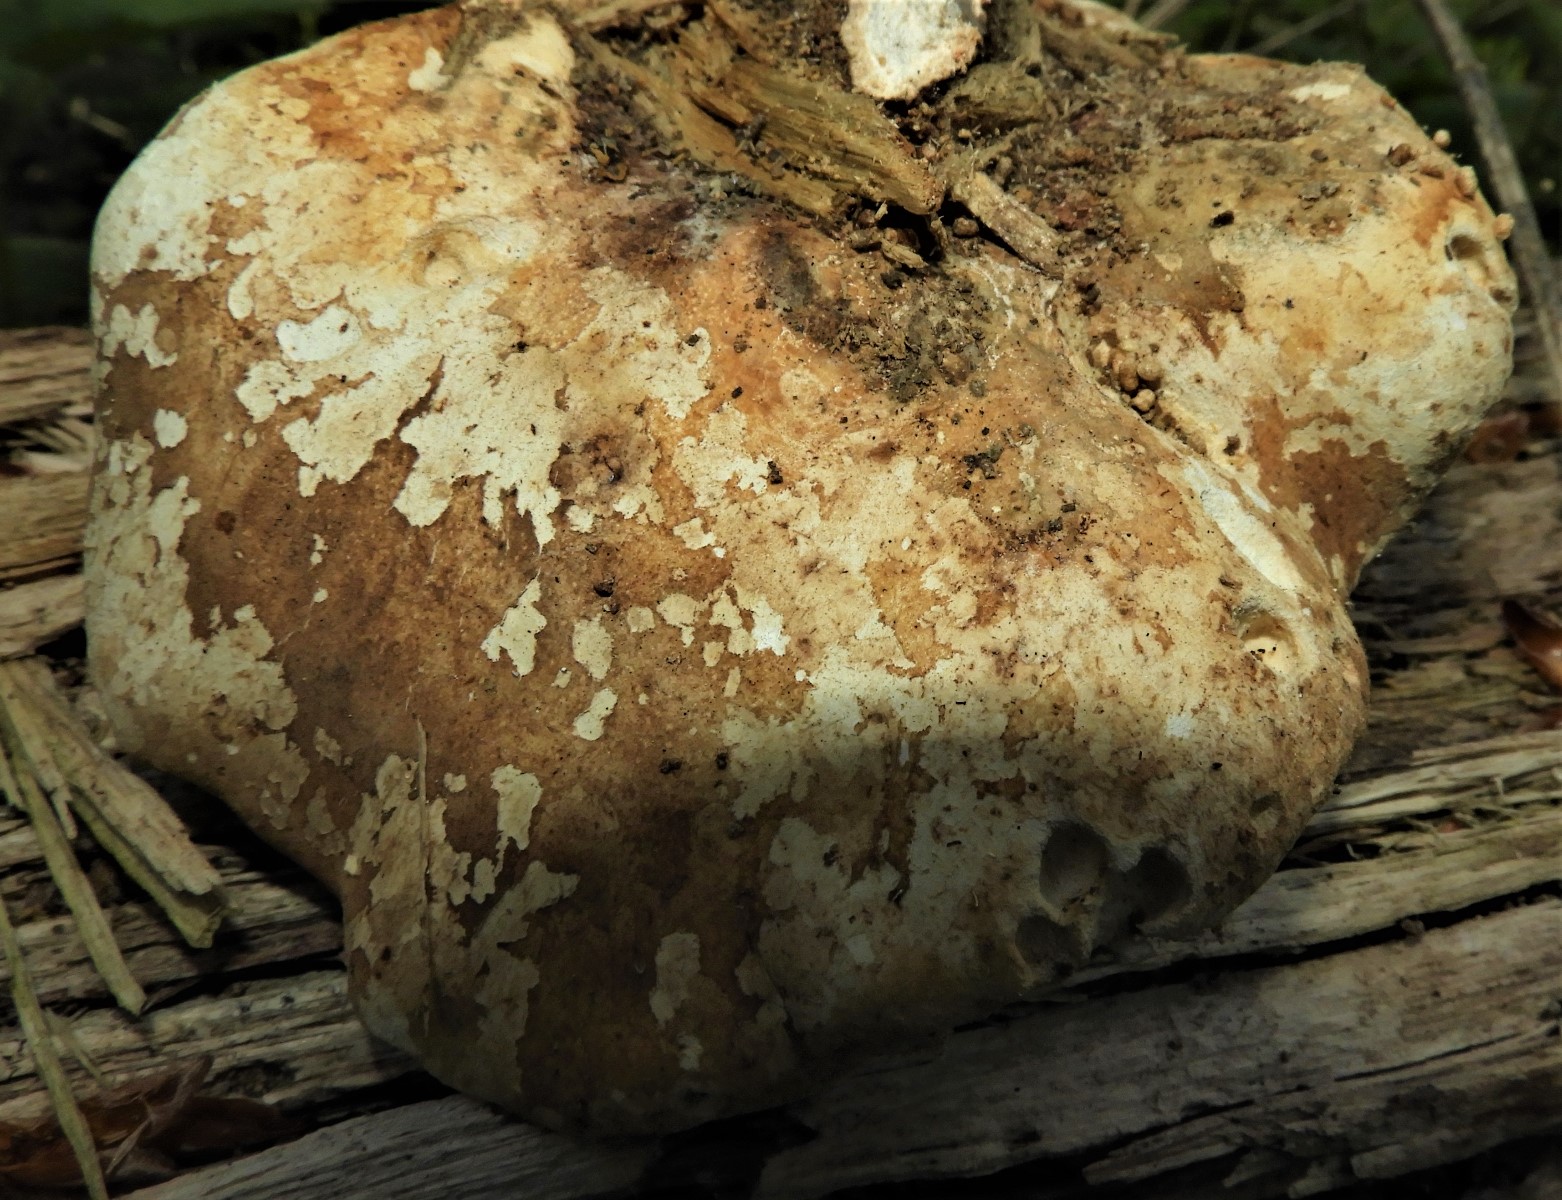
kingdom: Fungi
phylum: Basidiomycota
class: Agaricomycetes
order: Polyporales
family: Fomitopsidaceae
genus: Fomitopsis
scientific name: Fomitopsis betulina
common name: birkeporesvamp
